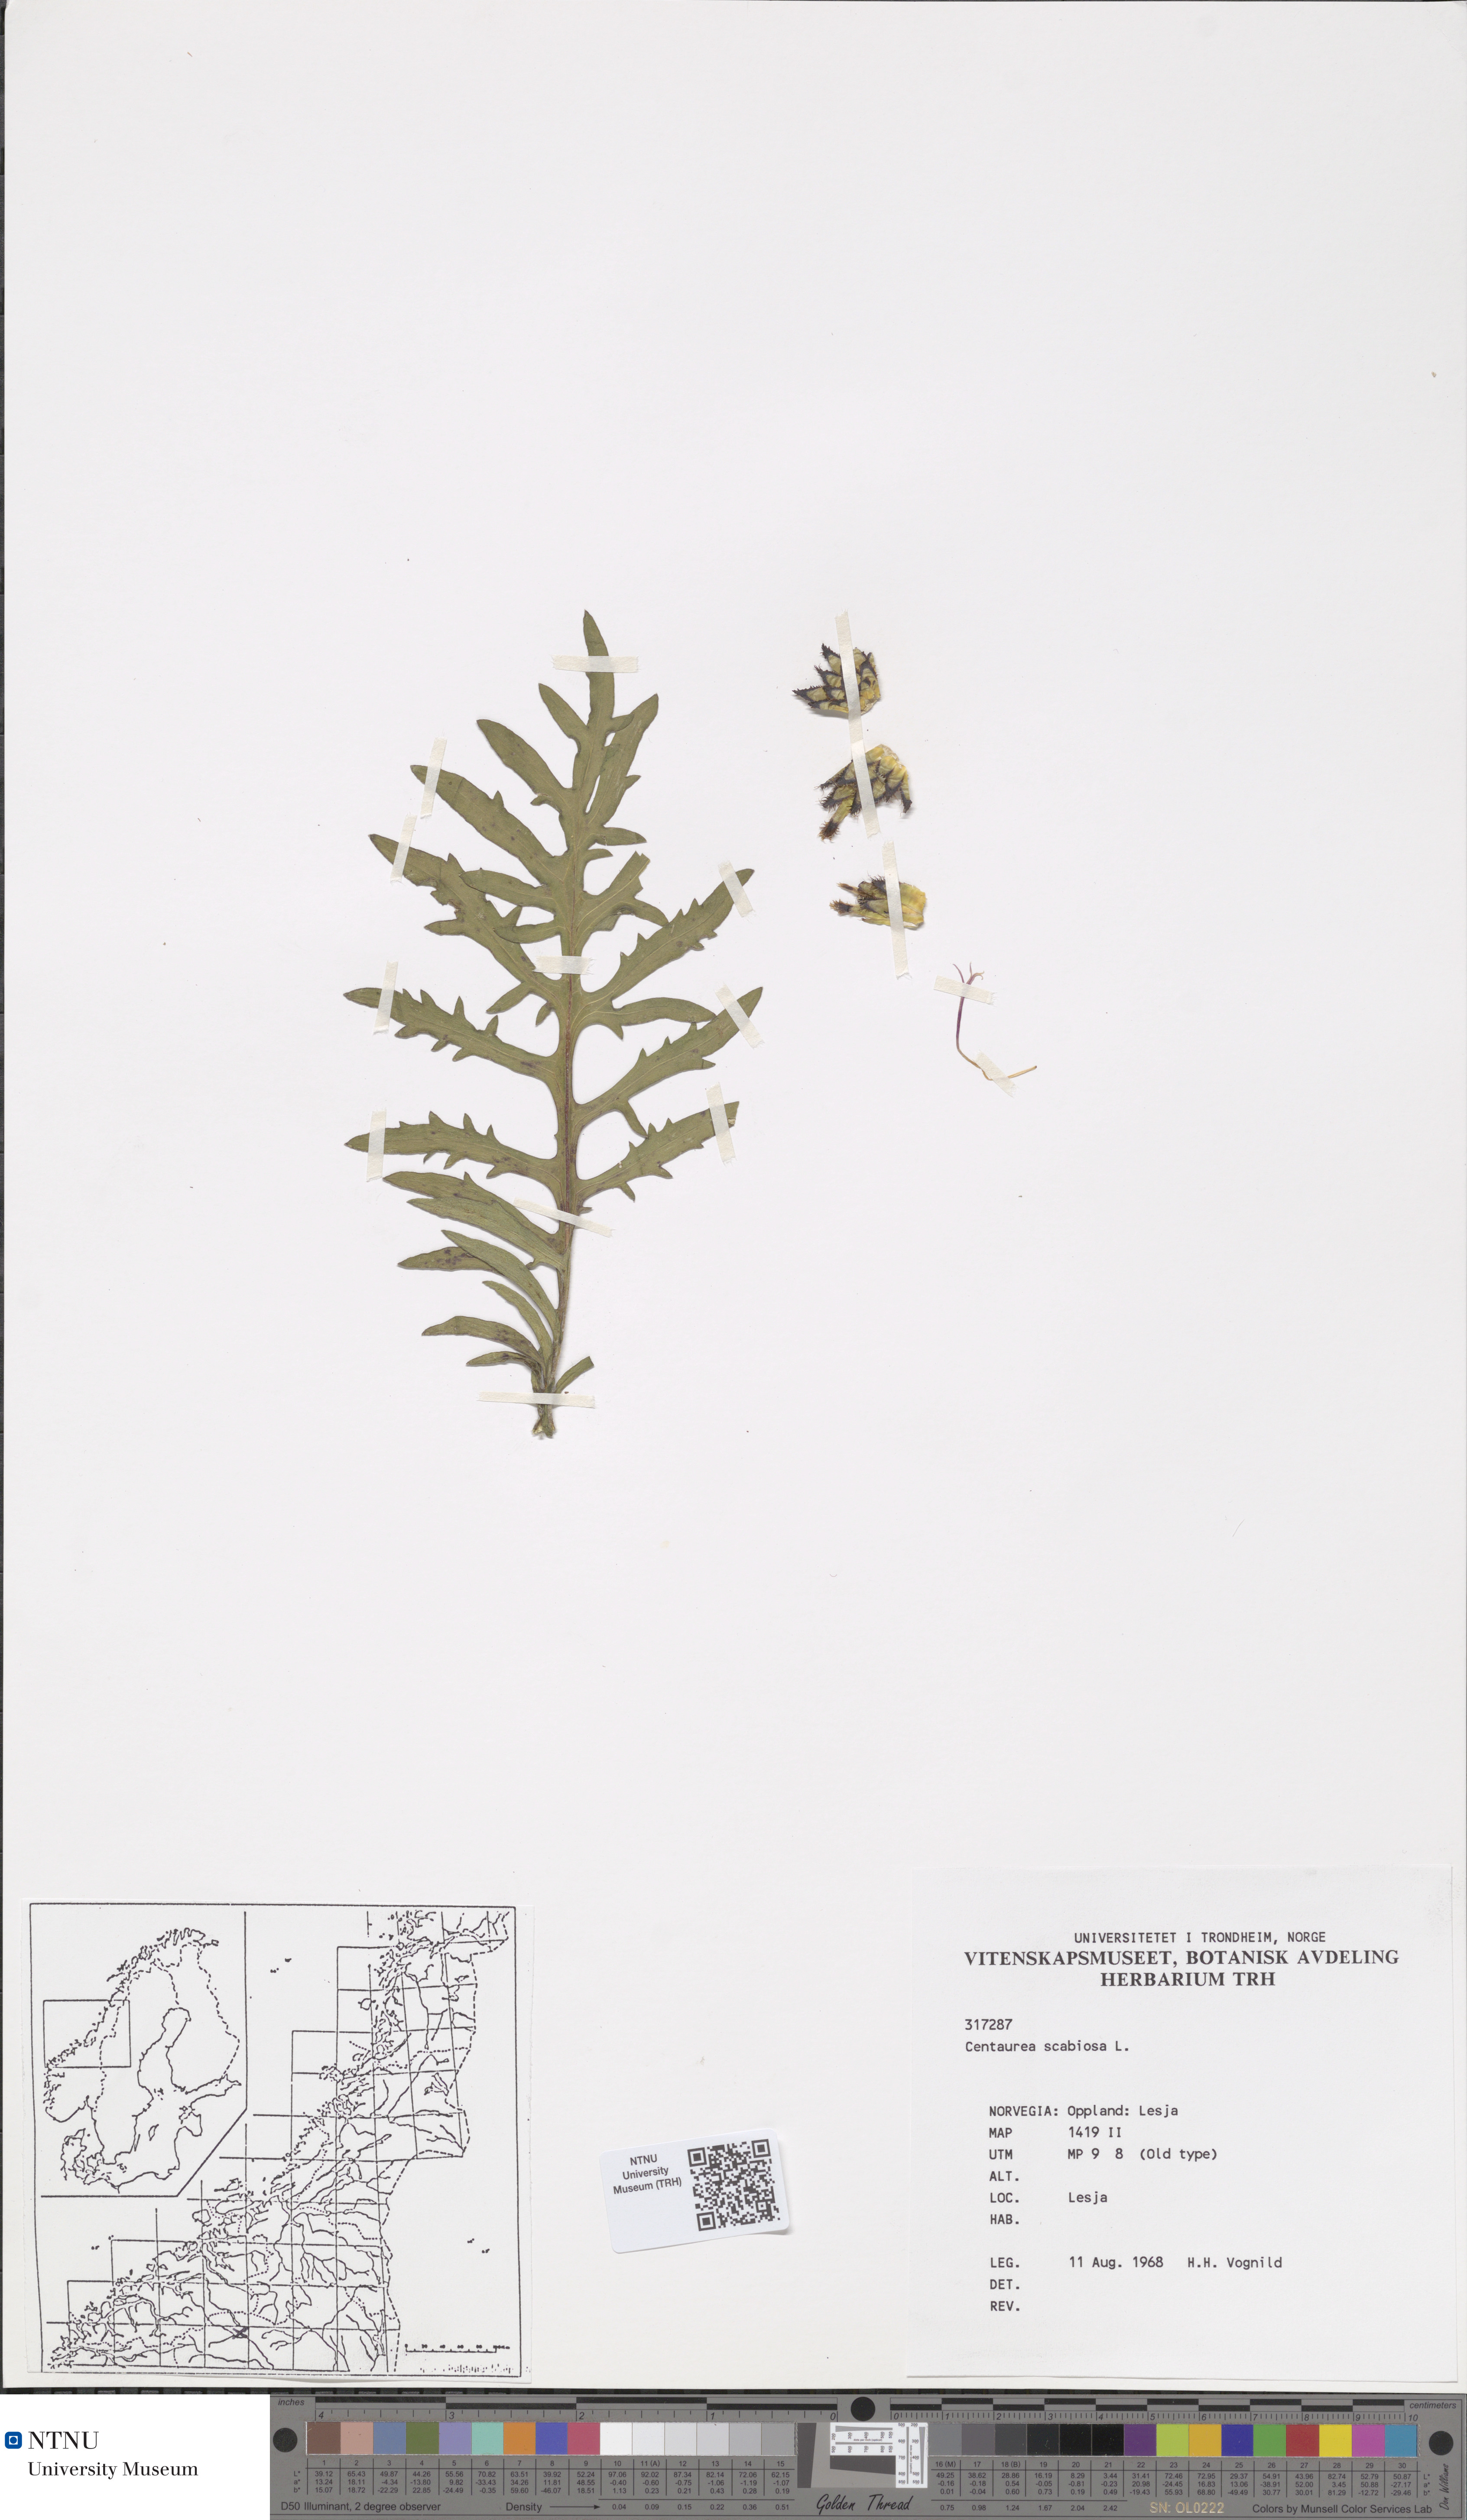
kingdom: Plantae
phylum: Tracheophyta
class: Magnoliopsida
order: Asterales
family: Asteraceae
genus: Centaurea
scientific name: Centaurea scabiosa
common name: Greater knapweed
